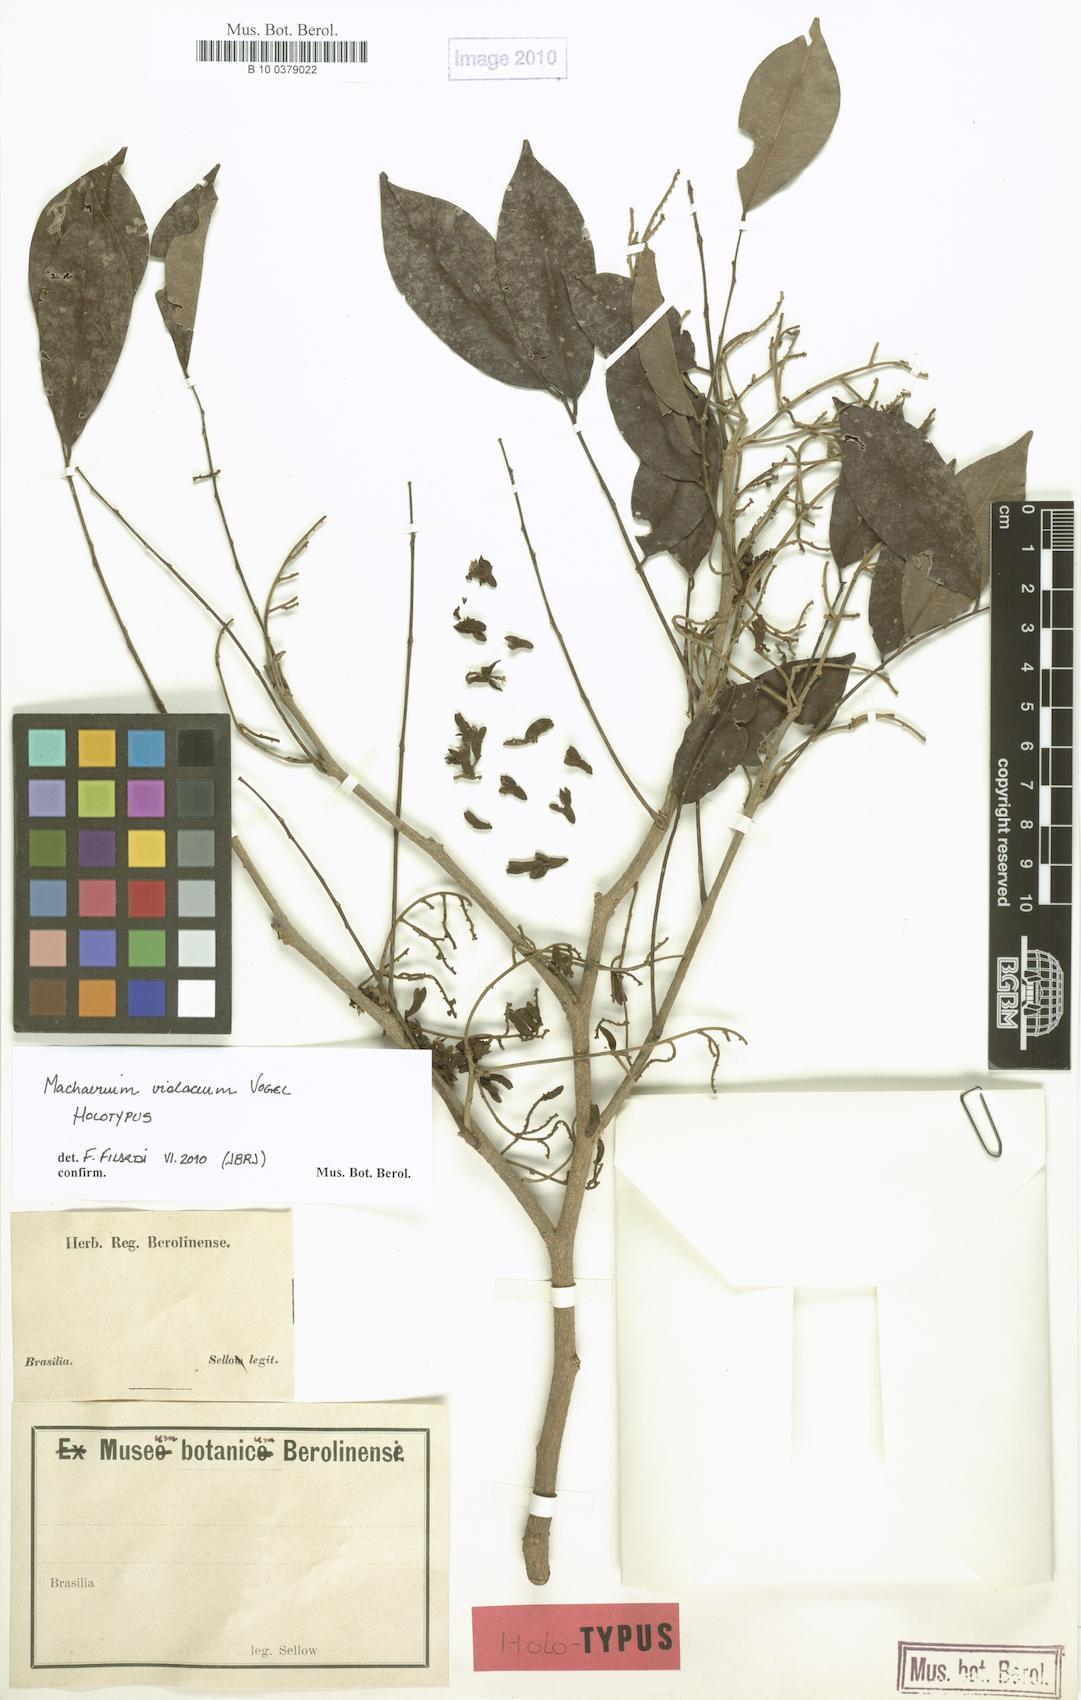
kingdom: Plantae
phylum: Tracheophyta
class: Magnoliopsida
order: Fabales
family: Fabaceae
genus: Machaerium
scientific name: Machaerium debile
